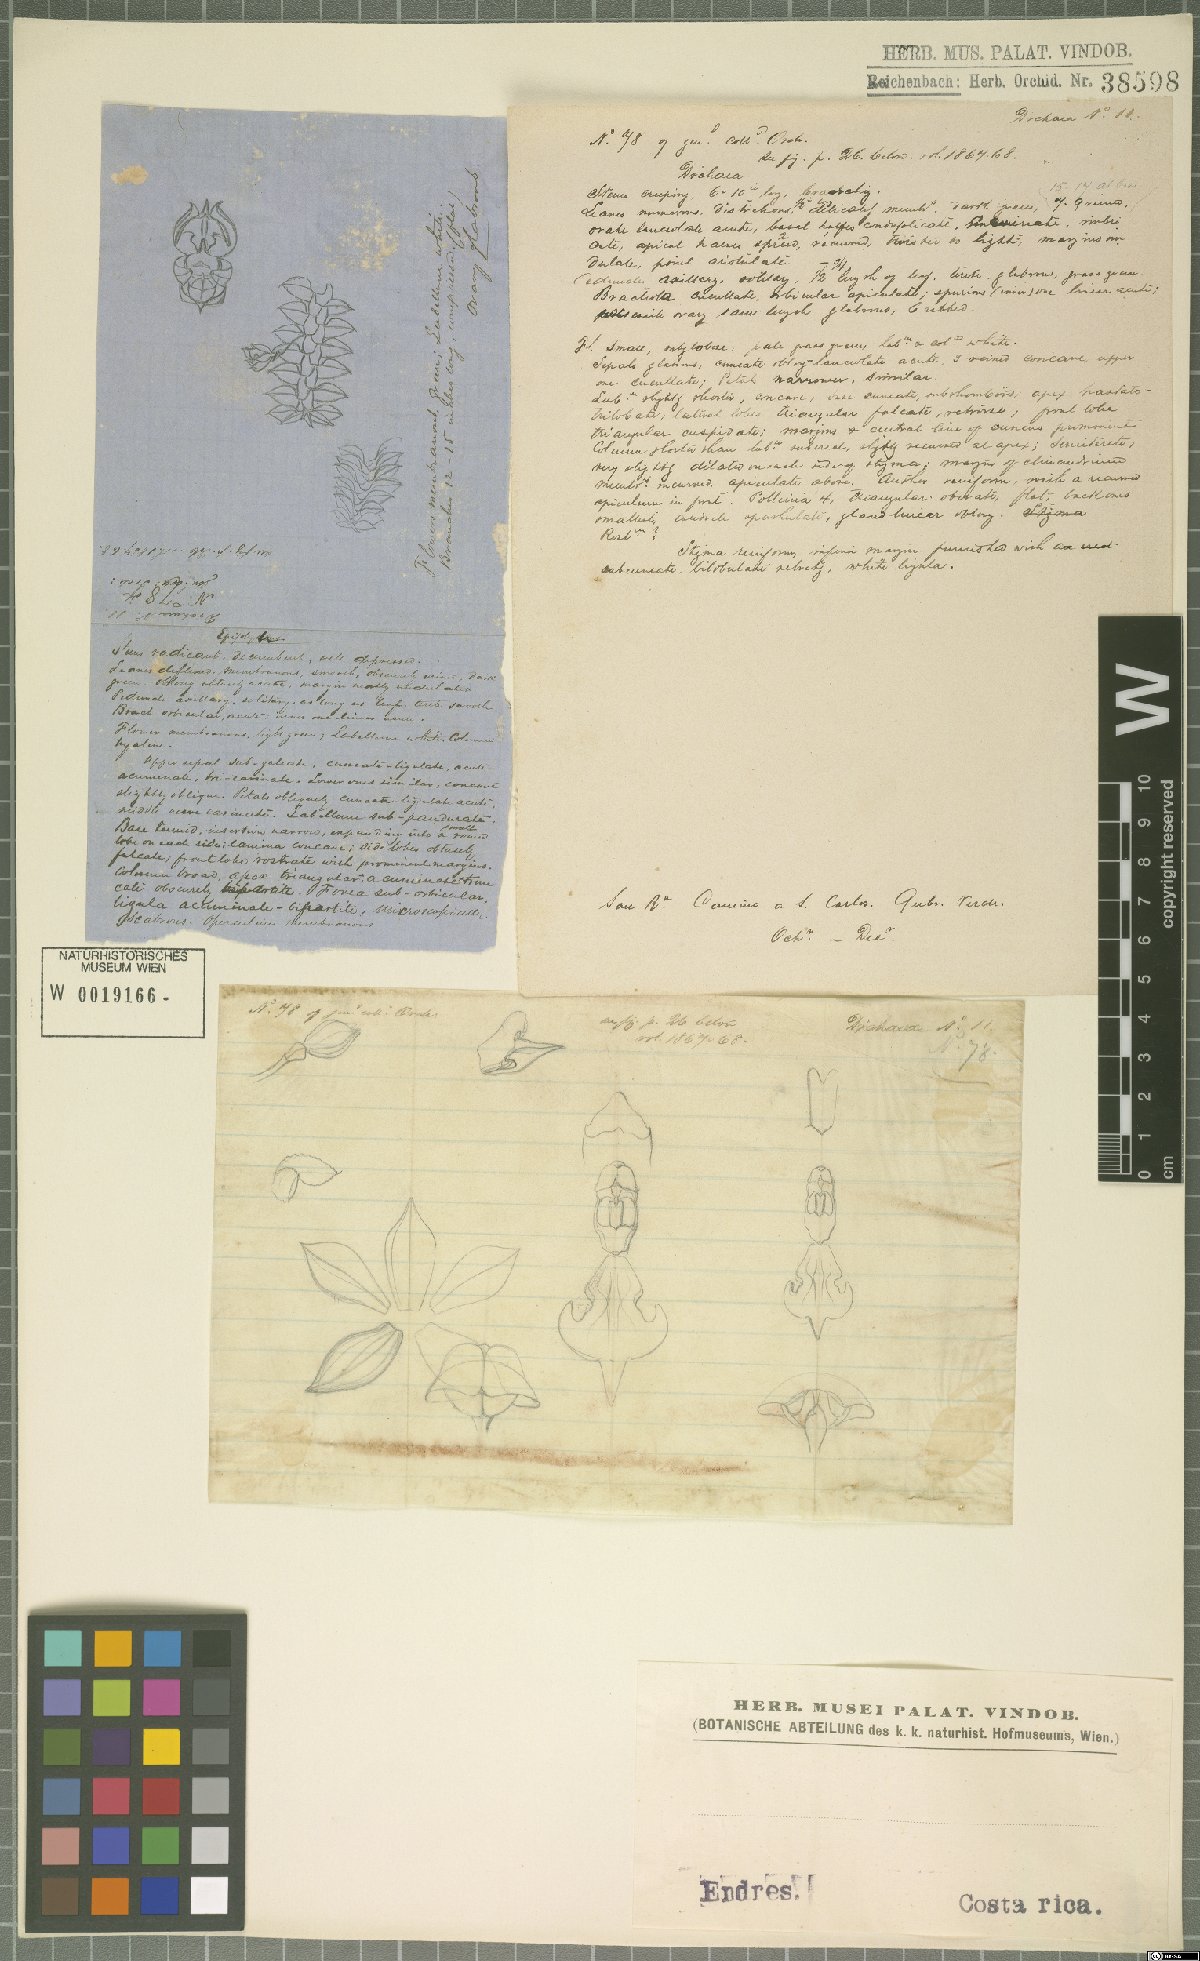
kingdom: Plantae
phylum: Tracheophyta
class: Liliopsida
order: Asparagales
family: Orchidaceae
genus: Dichaea
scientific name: Dichaea
